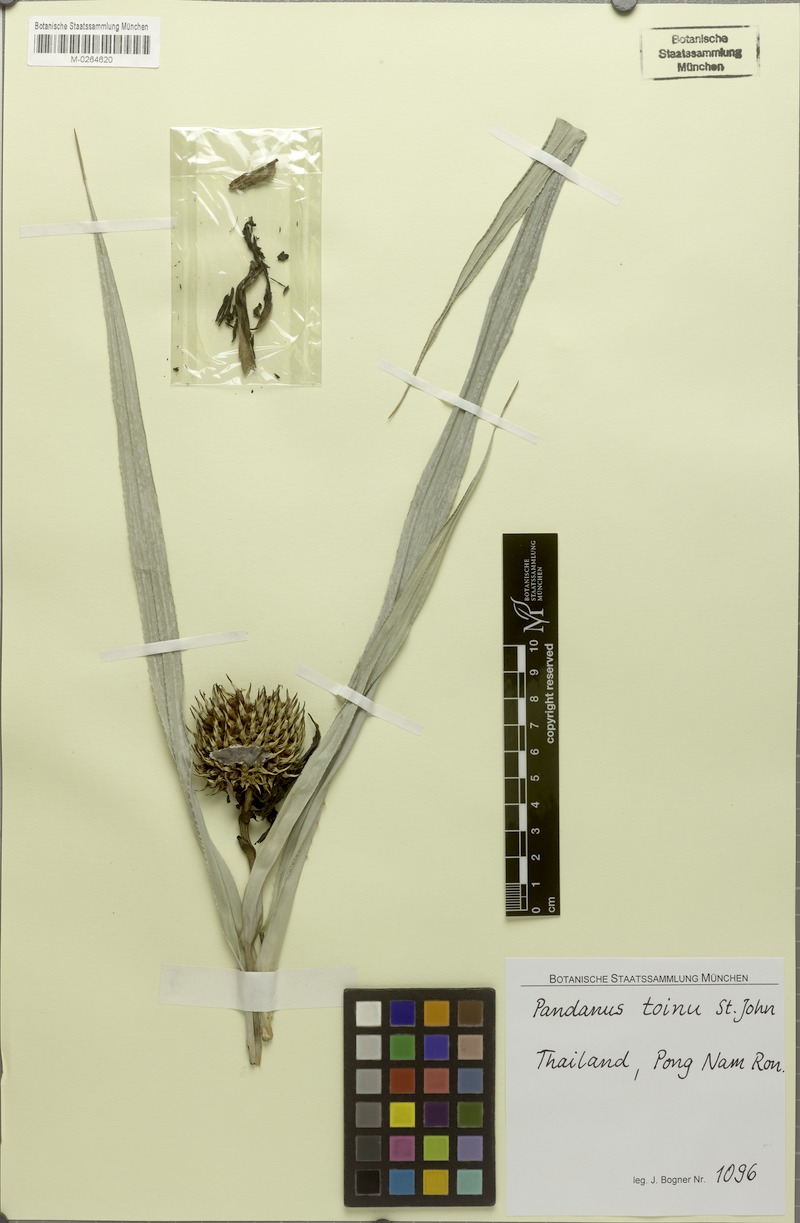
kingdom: Plantae
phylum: Tracheophyta
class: Liliopsida
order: Pandanales
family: Pandanaceae
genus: Benstonea
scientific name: Benstonea humilis
